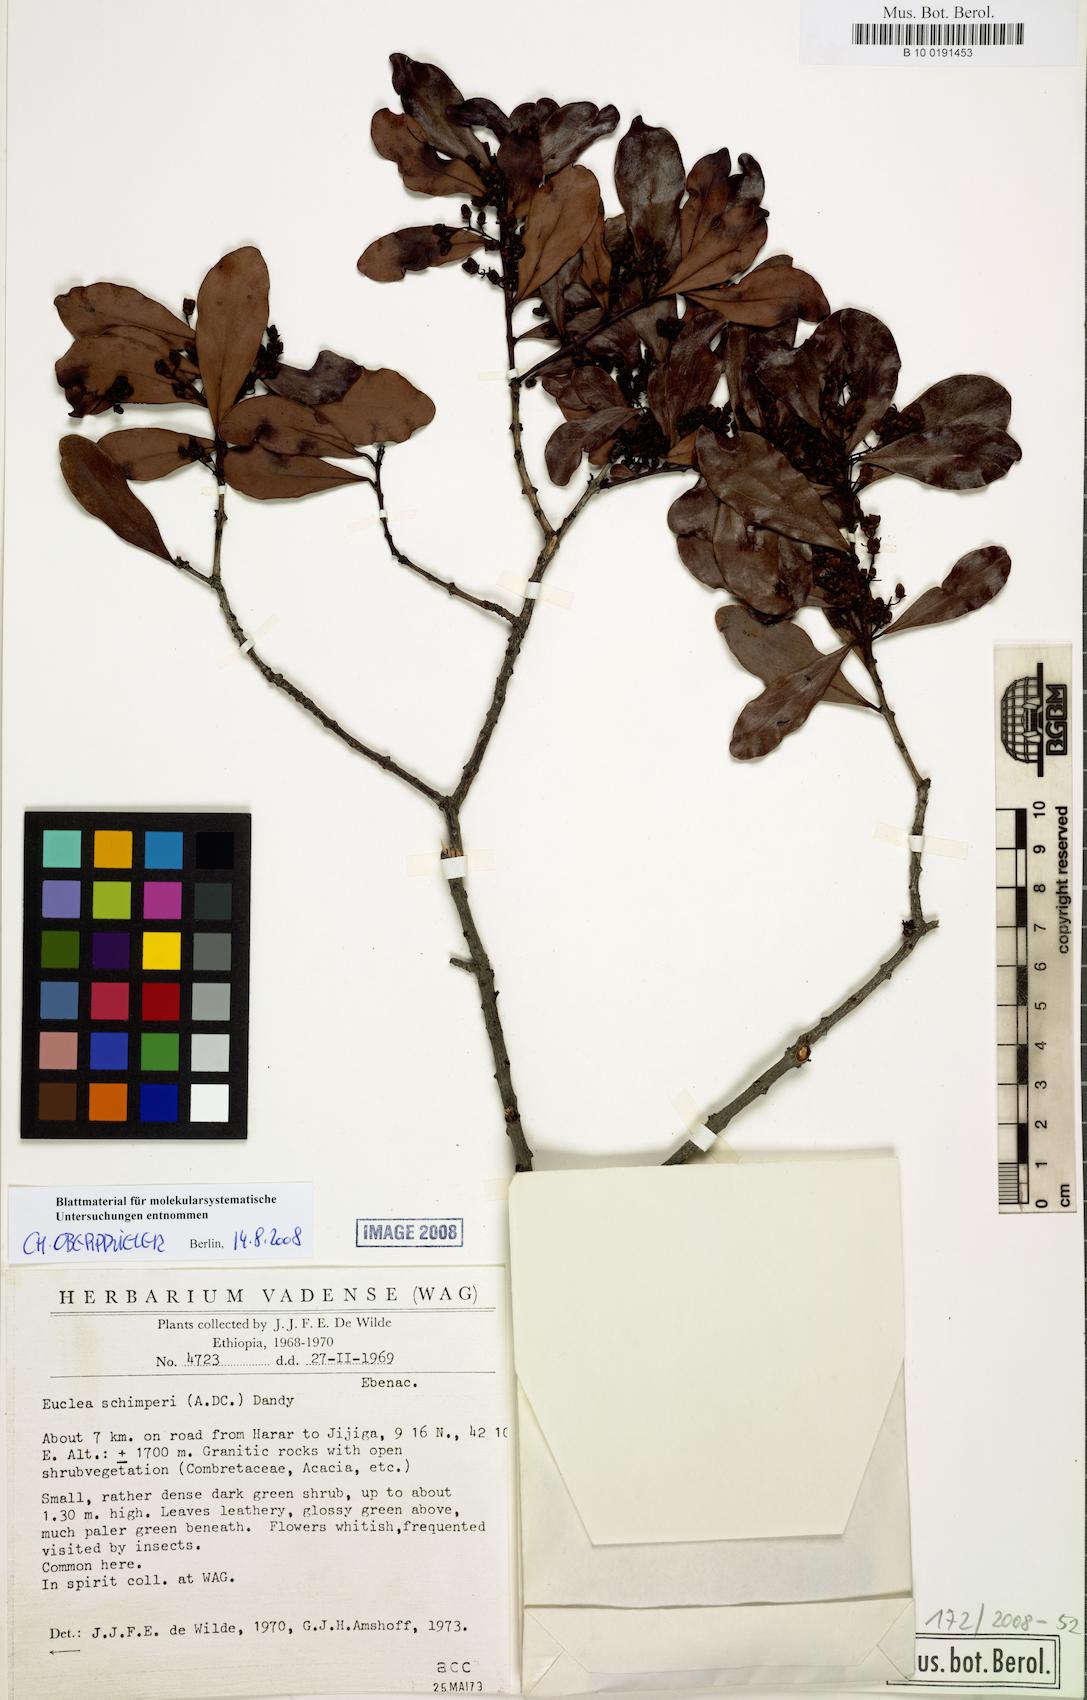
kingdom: Plantae
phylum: Tracheophyta
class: Magnoliopsida
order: Ericales
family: Ebenaceae
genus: Euclea
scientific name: Euclea racemosa
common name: Dune guarri
